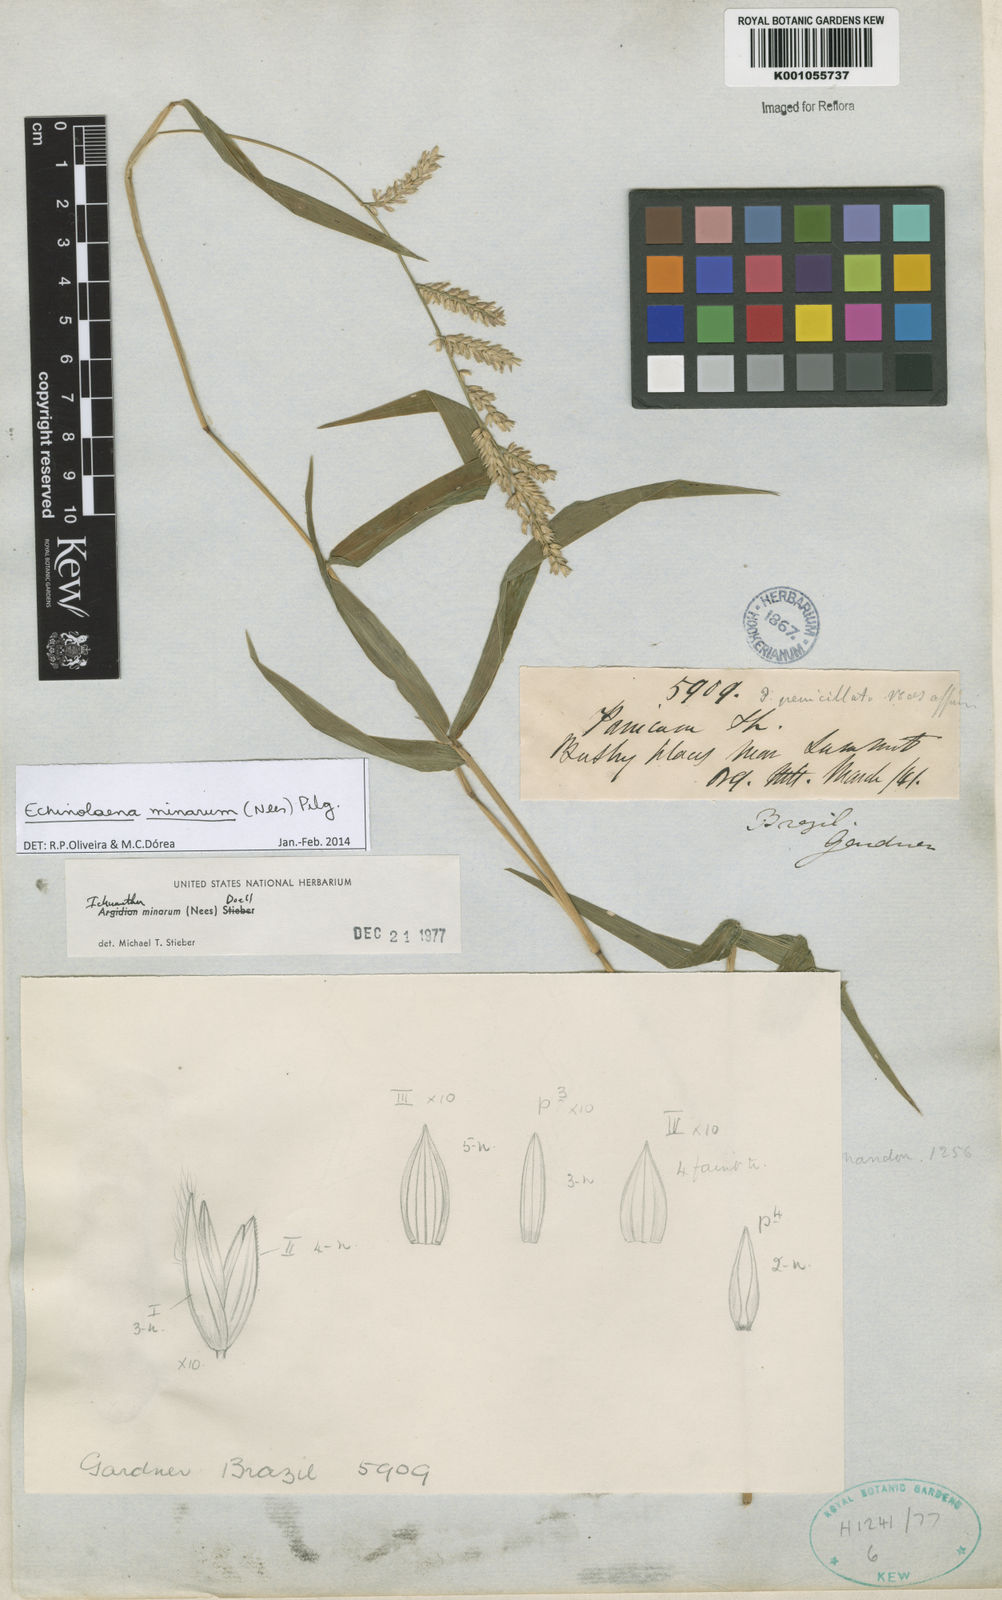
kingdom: Plantae
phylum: Tracheophyta
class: Liliopsida
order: Poales
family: Poaceae
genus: Oedochloa
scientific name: Oedochloa minarum
